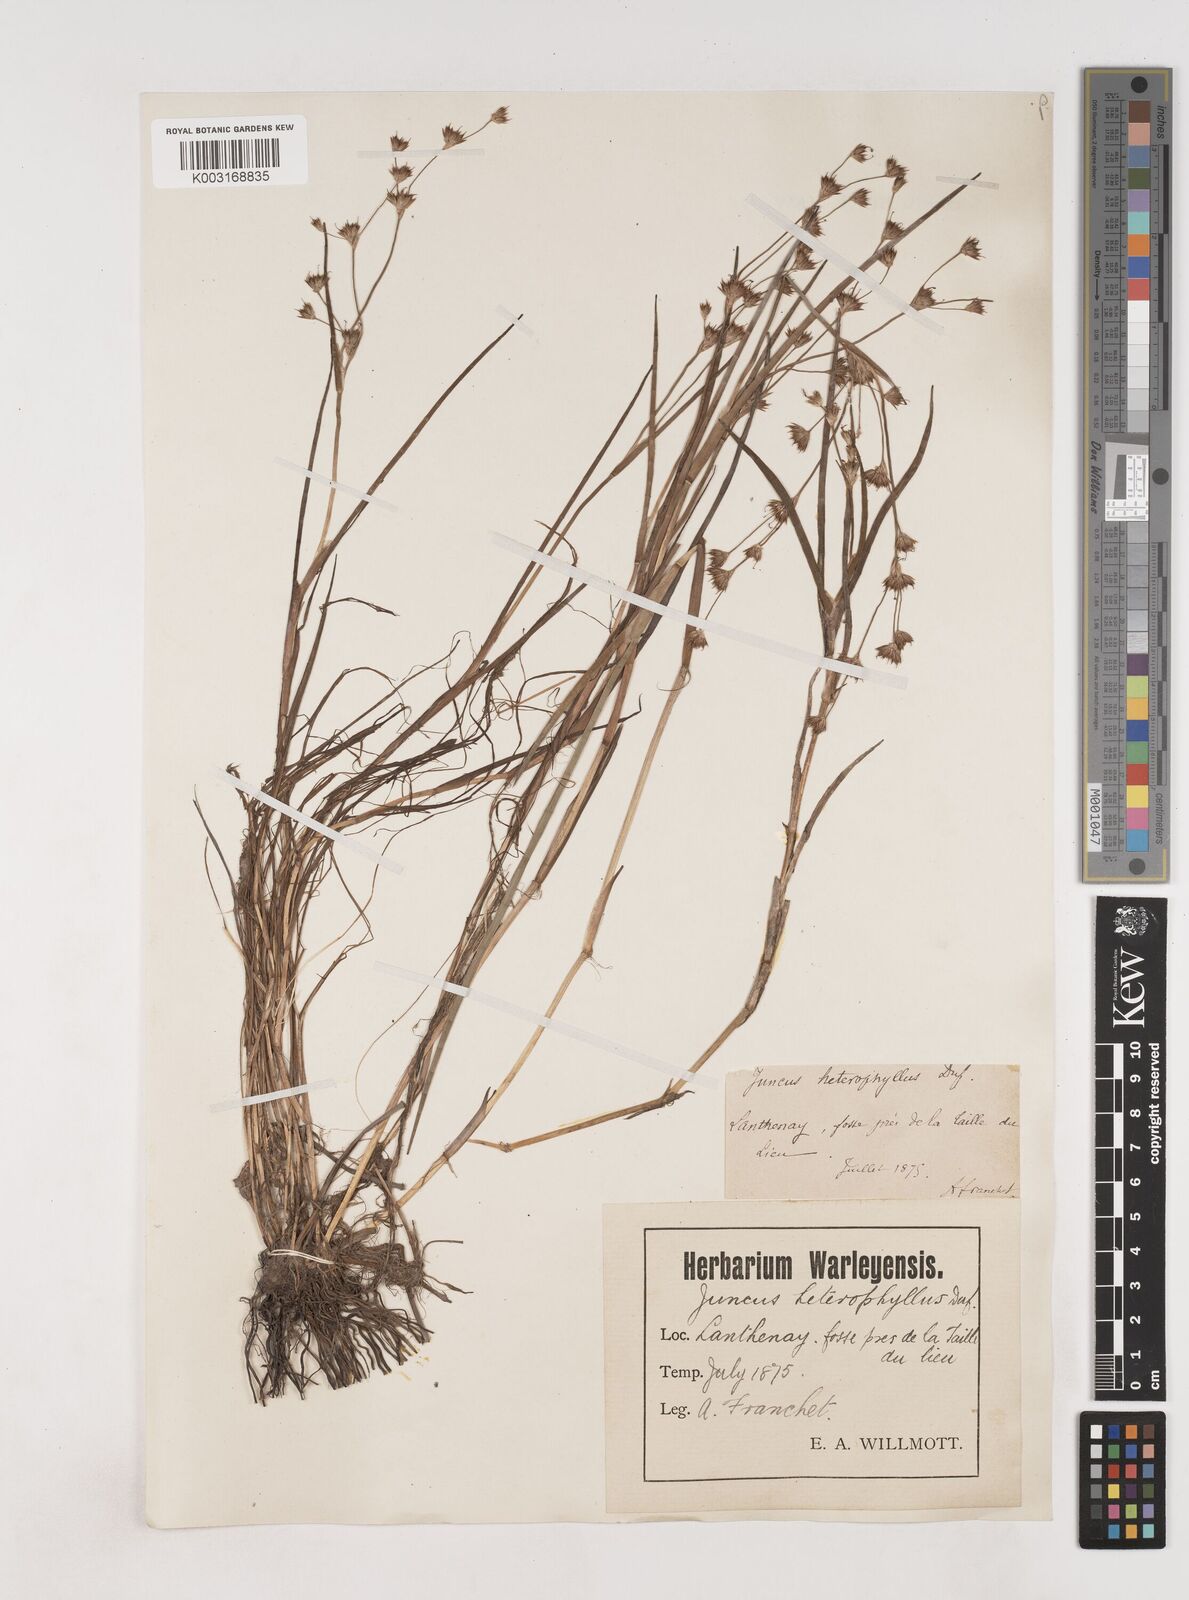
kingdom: Plantae
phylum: Tracheophyta
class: Liliopsida
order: Poales
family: Juncaceae
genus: Juncus
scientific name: Juncus heterophyllus
